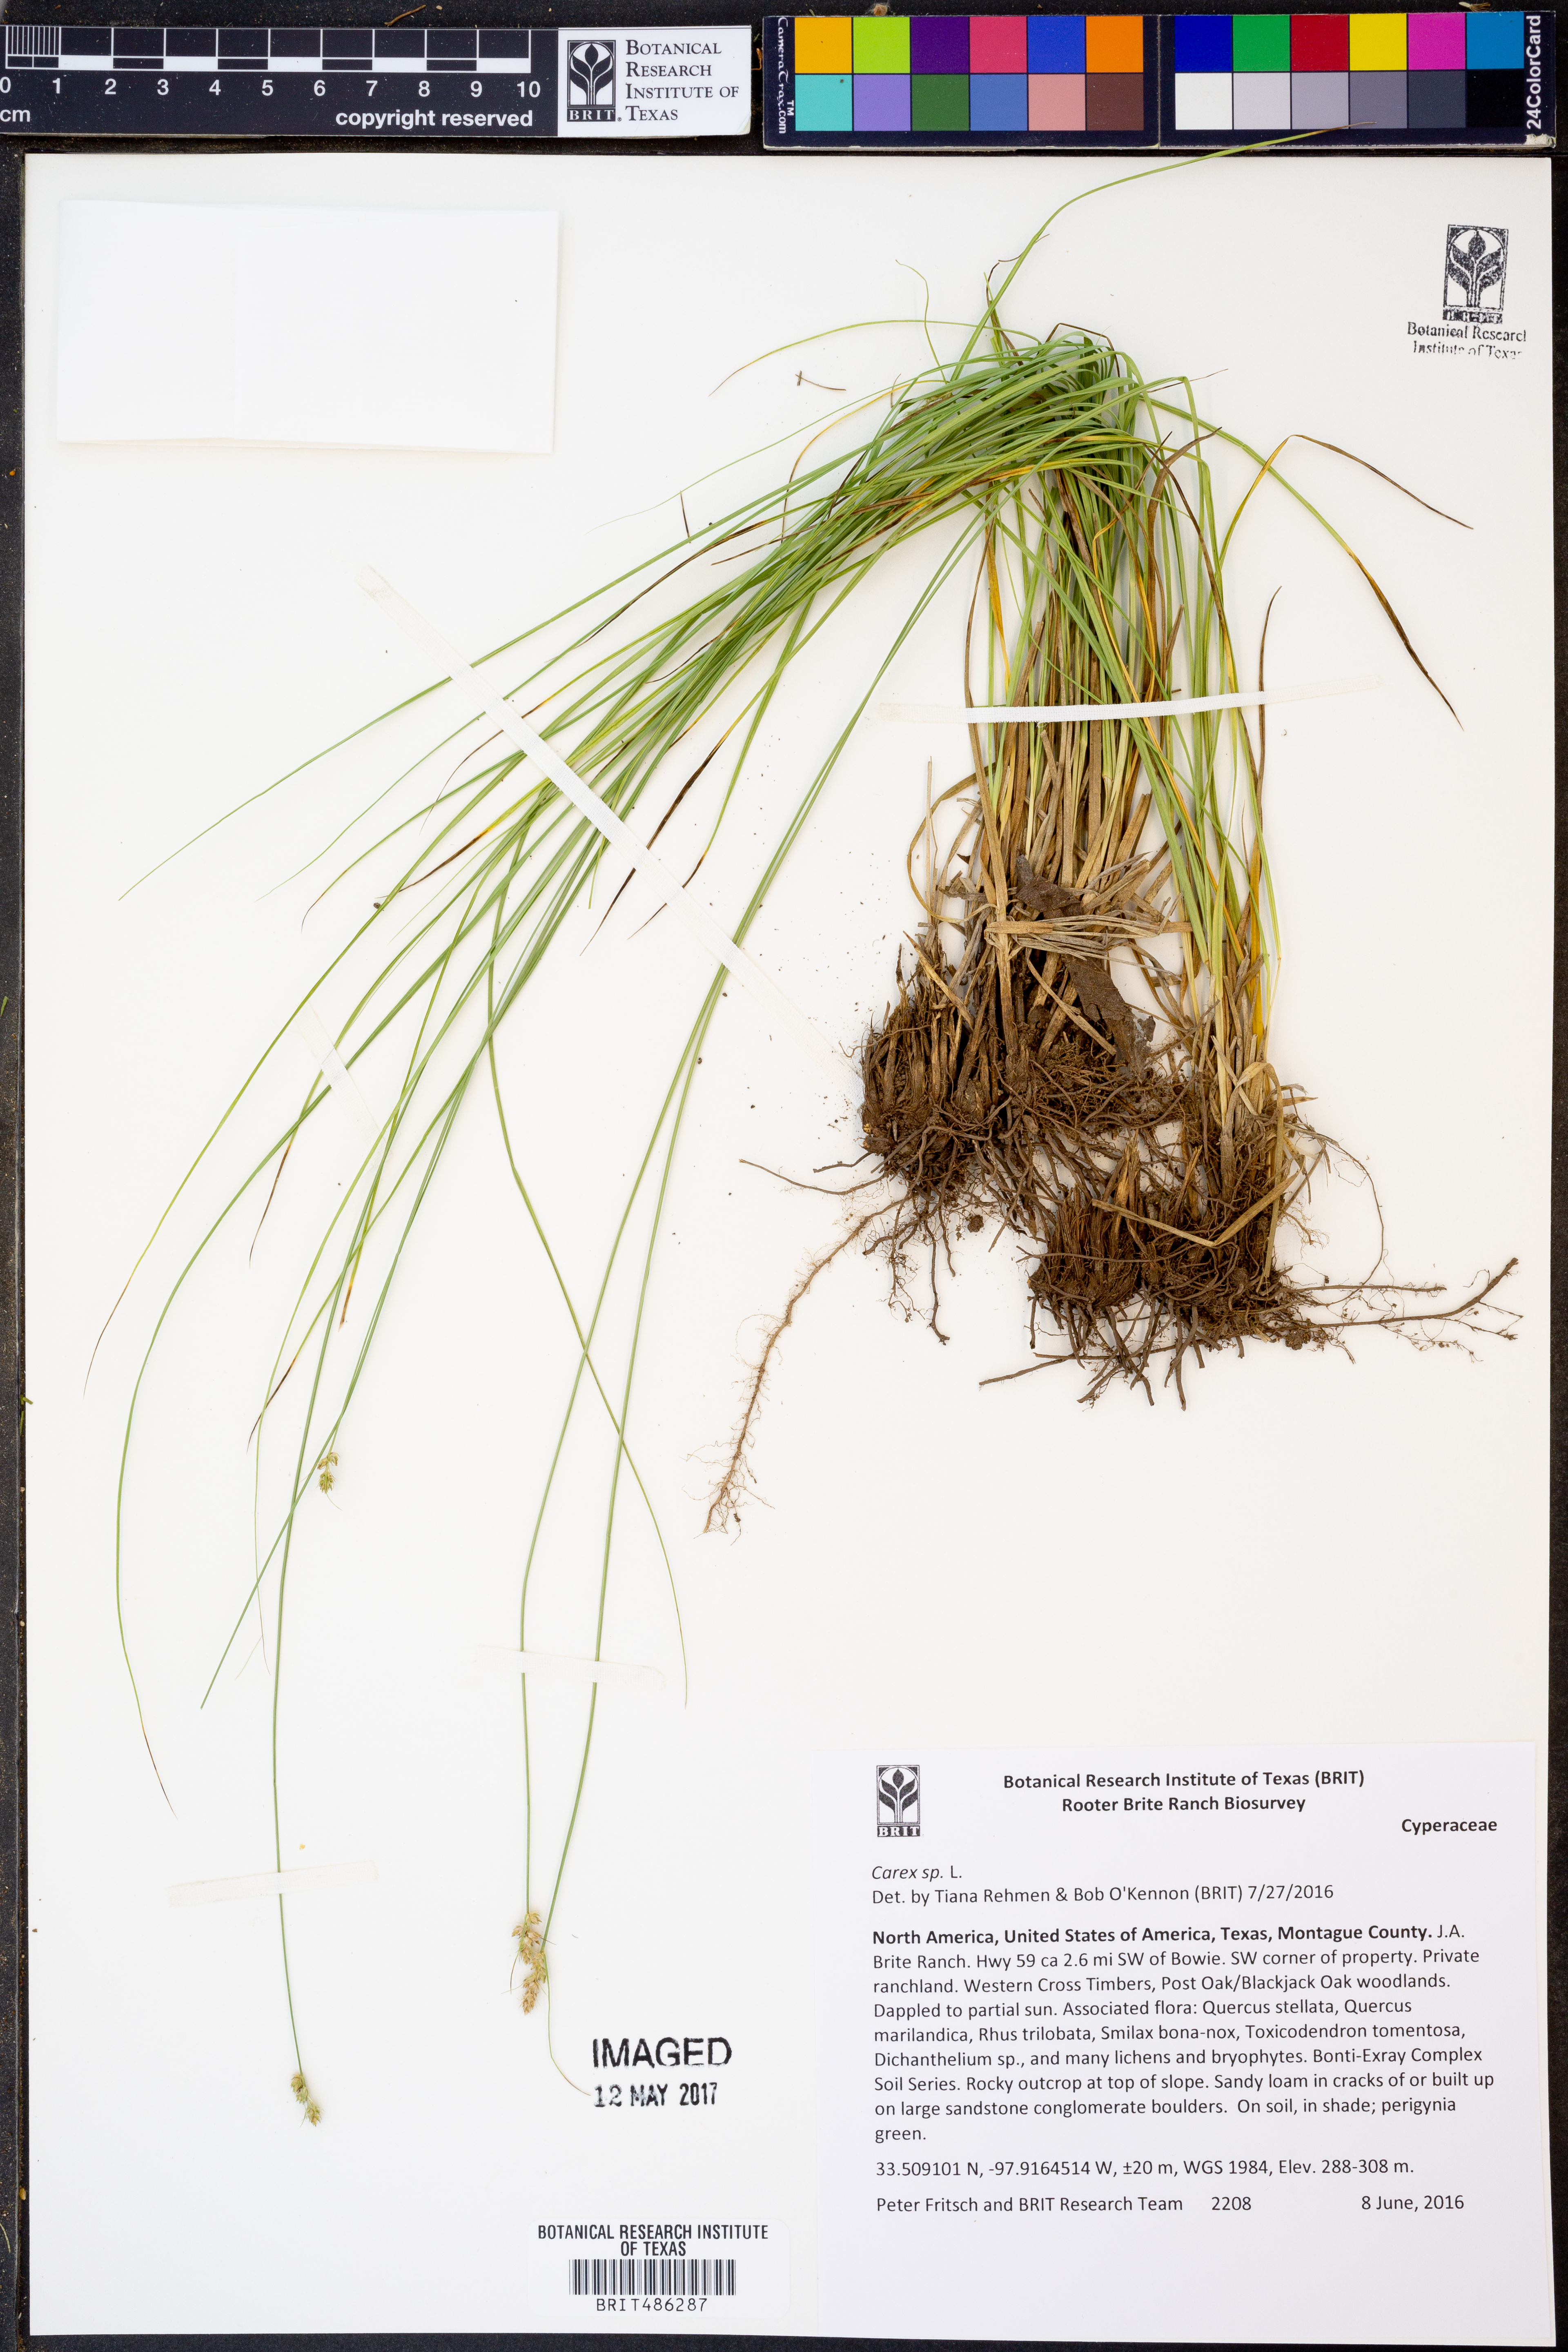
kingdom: Plantae
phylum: Tracheophyta
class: Liliopsida
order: Poales
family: Cyperaceae
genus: Carex
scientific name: Carex
